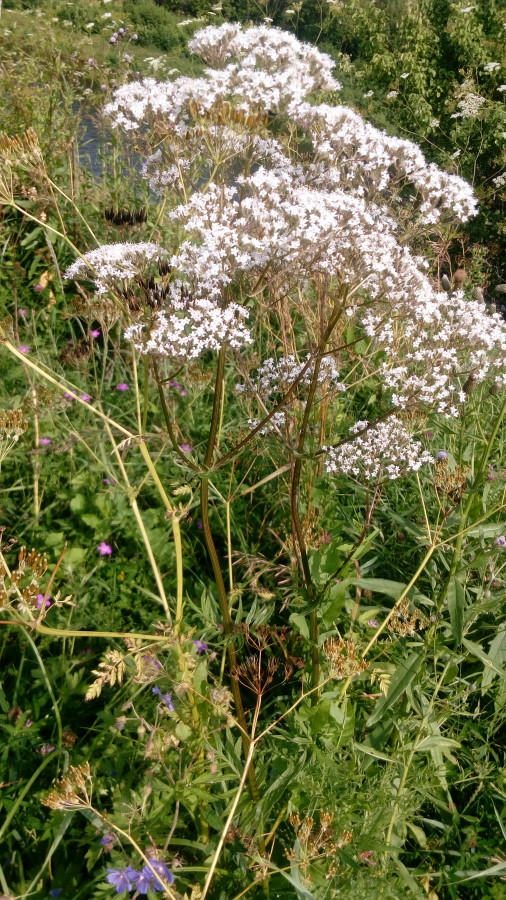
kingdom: Plantae
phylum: Tracheophyta
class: Magnoliopsida
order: Dipsacales
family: Caprifoliaceae
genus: Valeriana
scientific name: Valeriana officinalis
